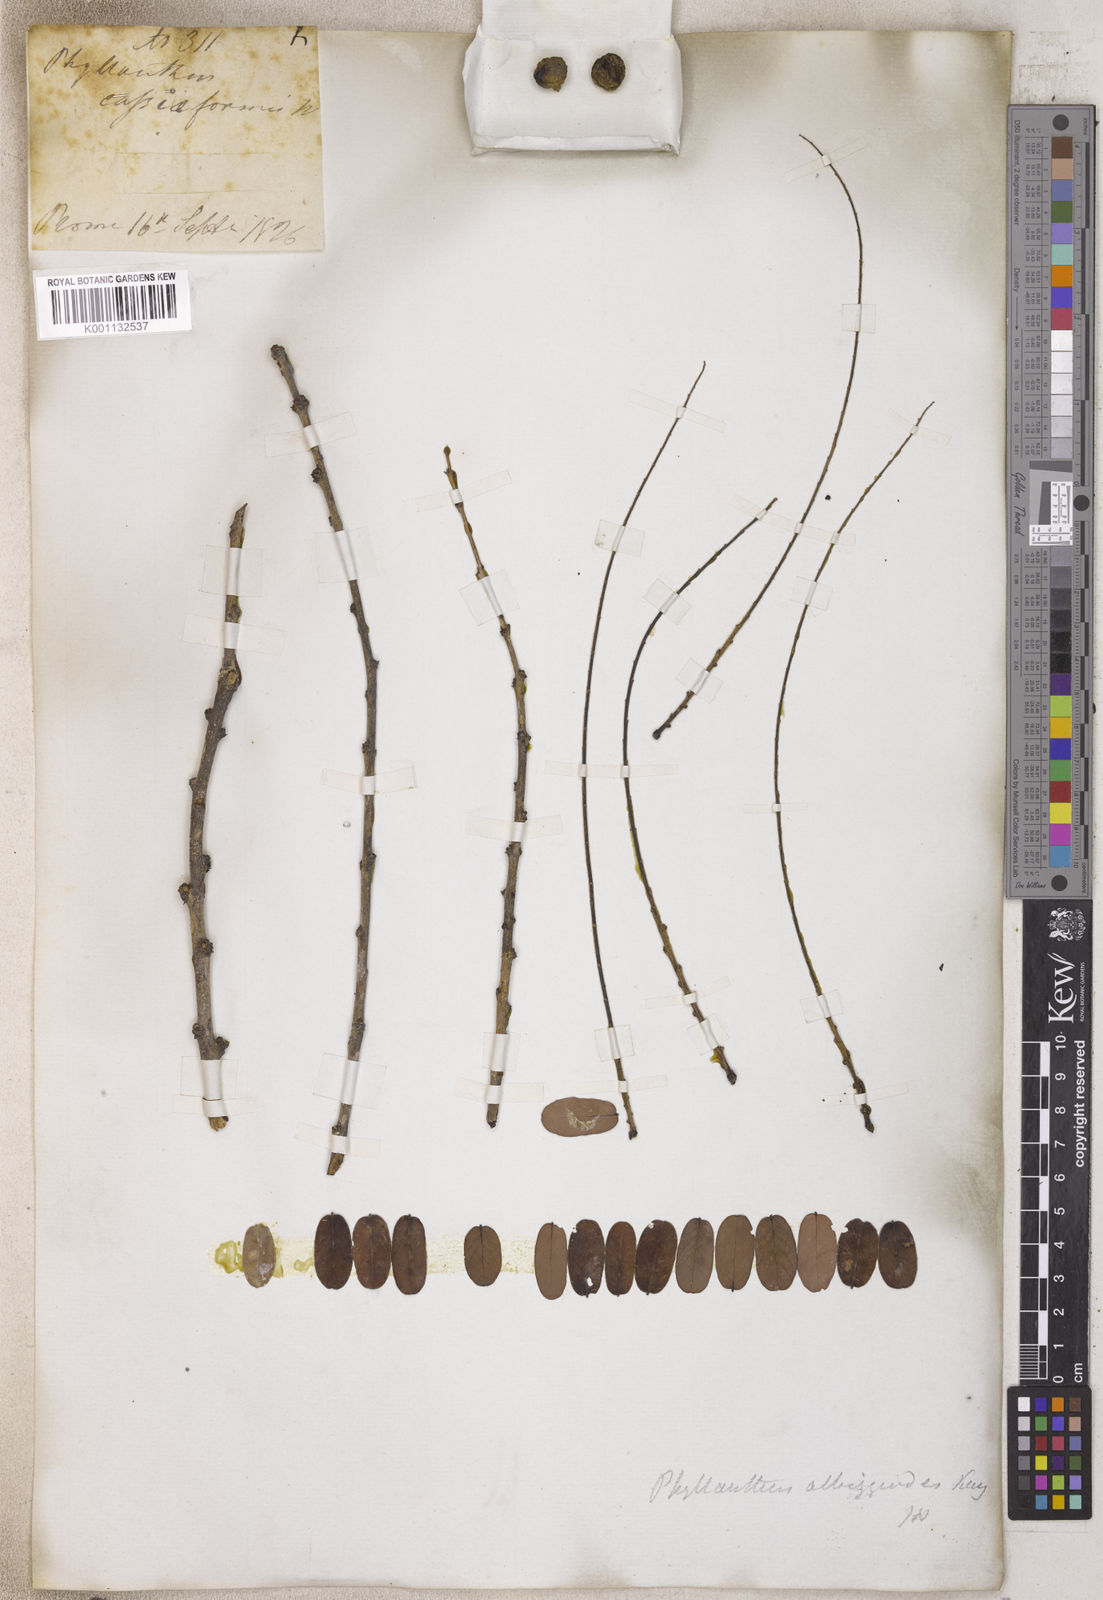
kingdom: Plantae
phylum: Tracheophyta
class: Magnoliopsida
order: Malpighiales
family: Phyllanthaceae
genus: Phyllanthus
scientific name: Phyllanthus
